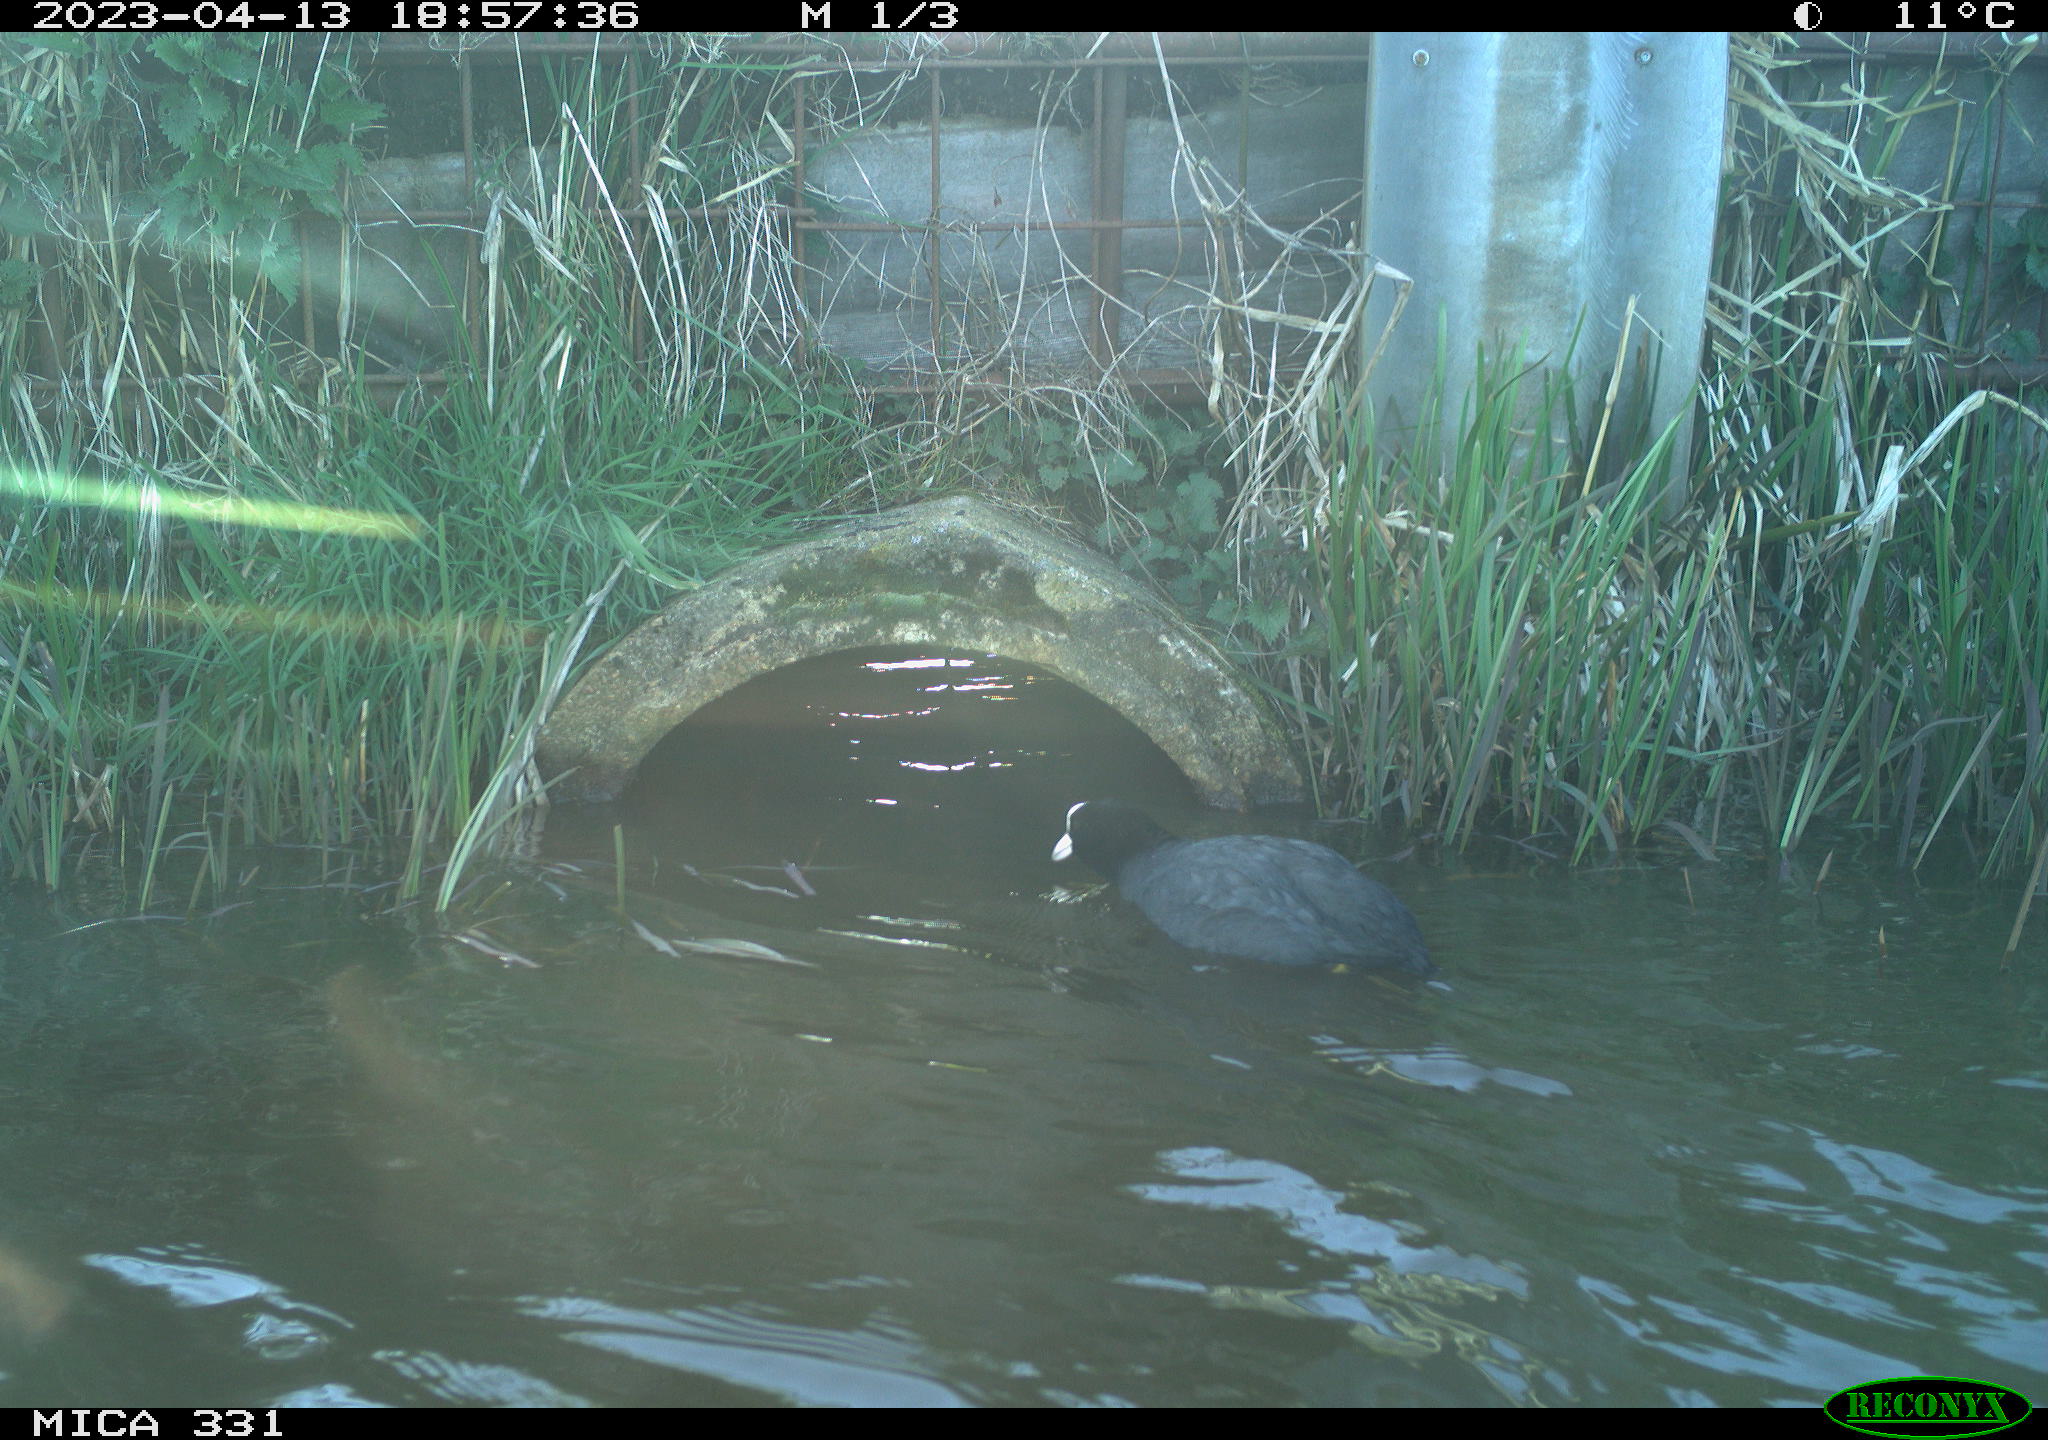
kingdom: Animalia
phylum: Chordata
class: Aves
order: Gruiformes
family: Rallidae
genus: Fulica
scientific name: Fulica atra
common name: Eurasian coot
